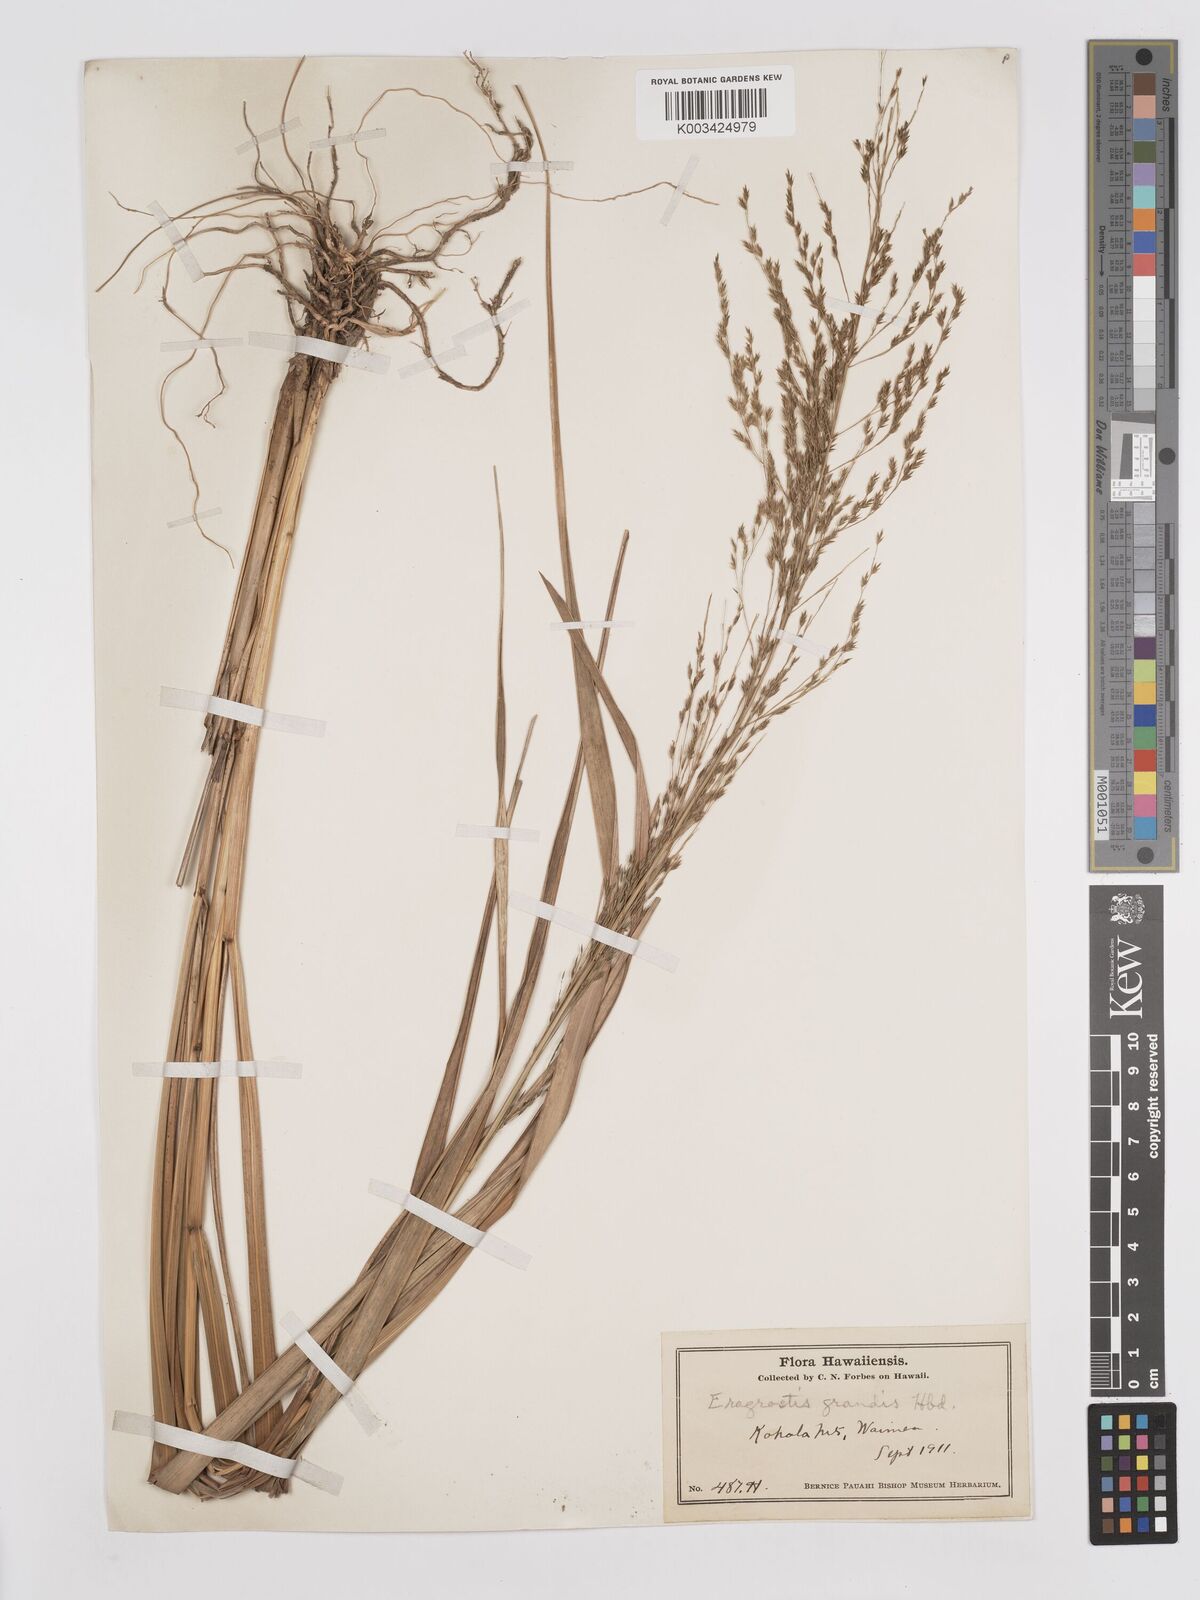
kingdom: Plantae
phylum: Tracheophyta
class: Liliopsida
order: Poales
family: Poaceae
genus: Eragrostis
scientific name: Eragrostis grandis
